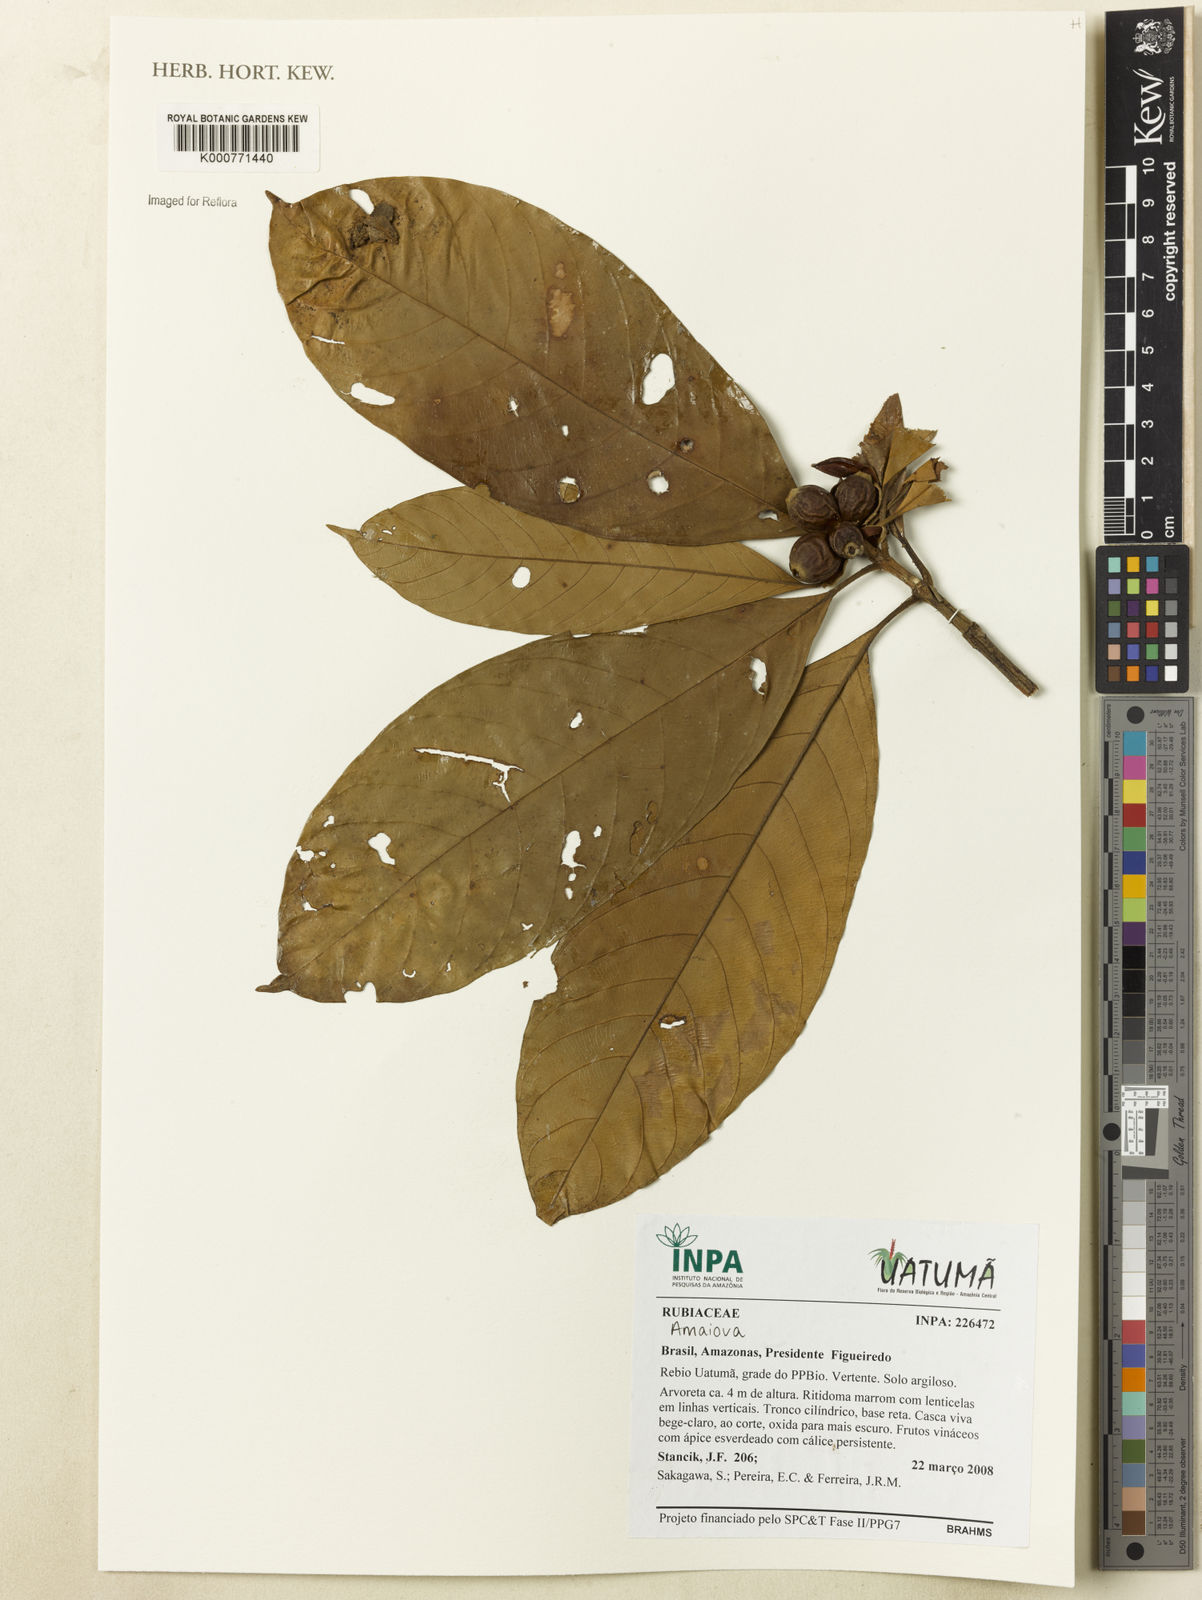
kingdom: Plantae
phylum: Tracheophyta
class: Magnoliopsida
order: Gentianales
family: Rubiaceae
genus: Amaioua
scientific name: Amaioua
